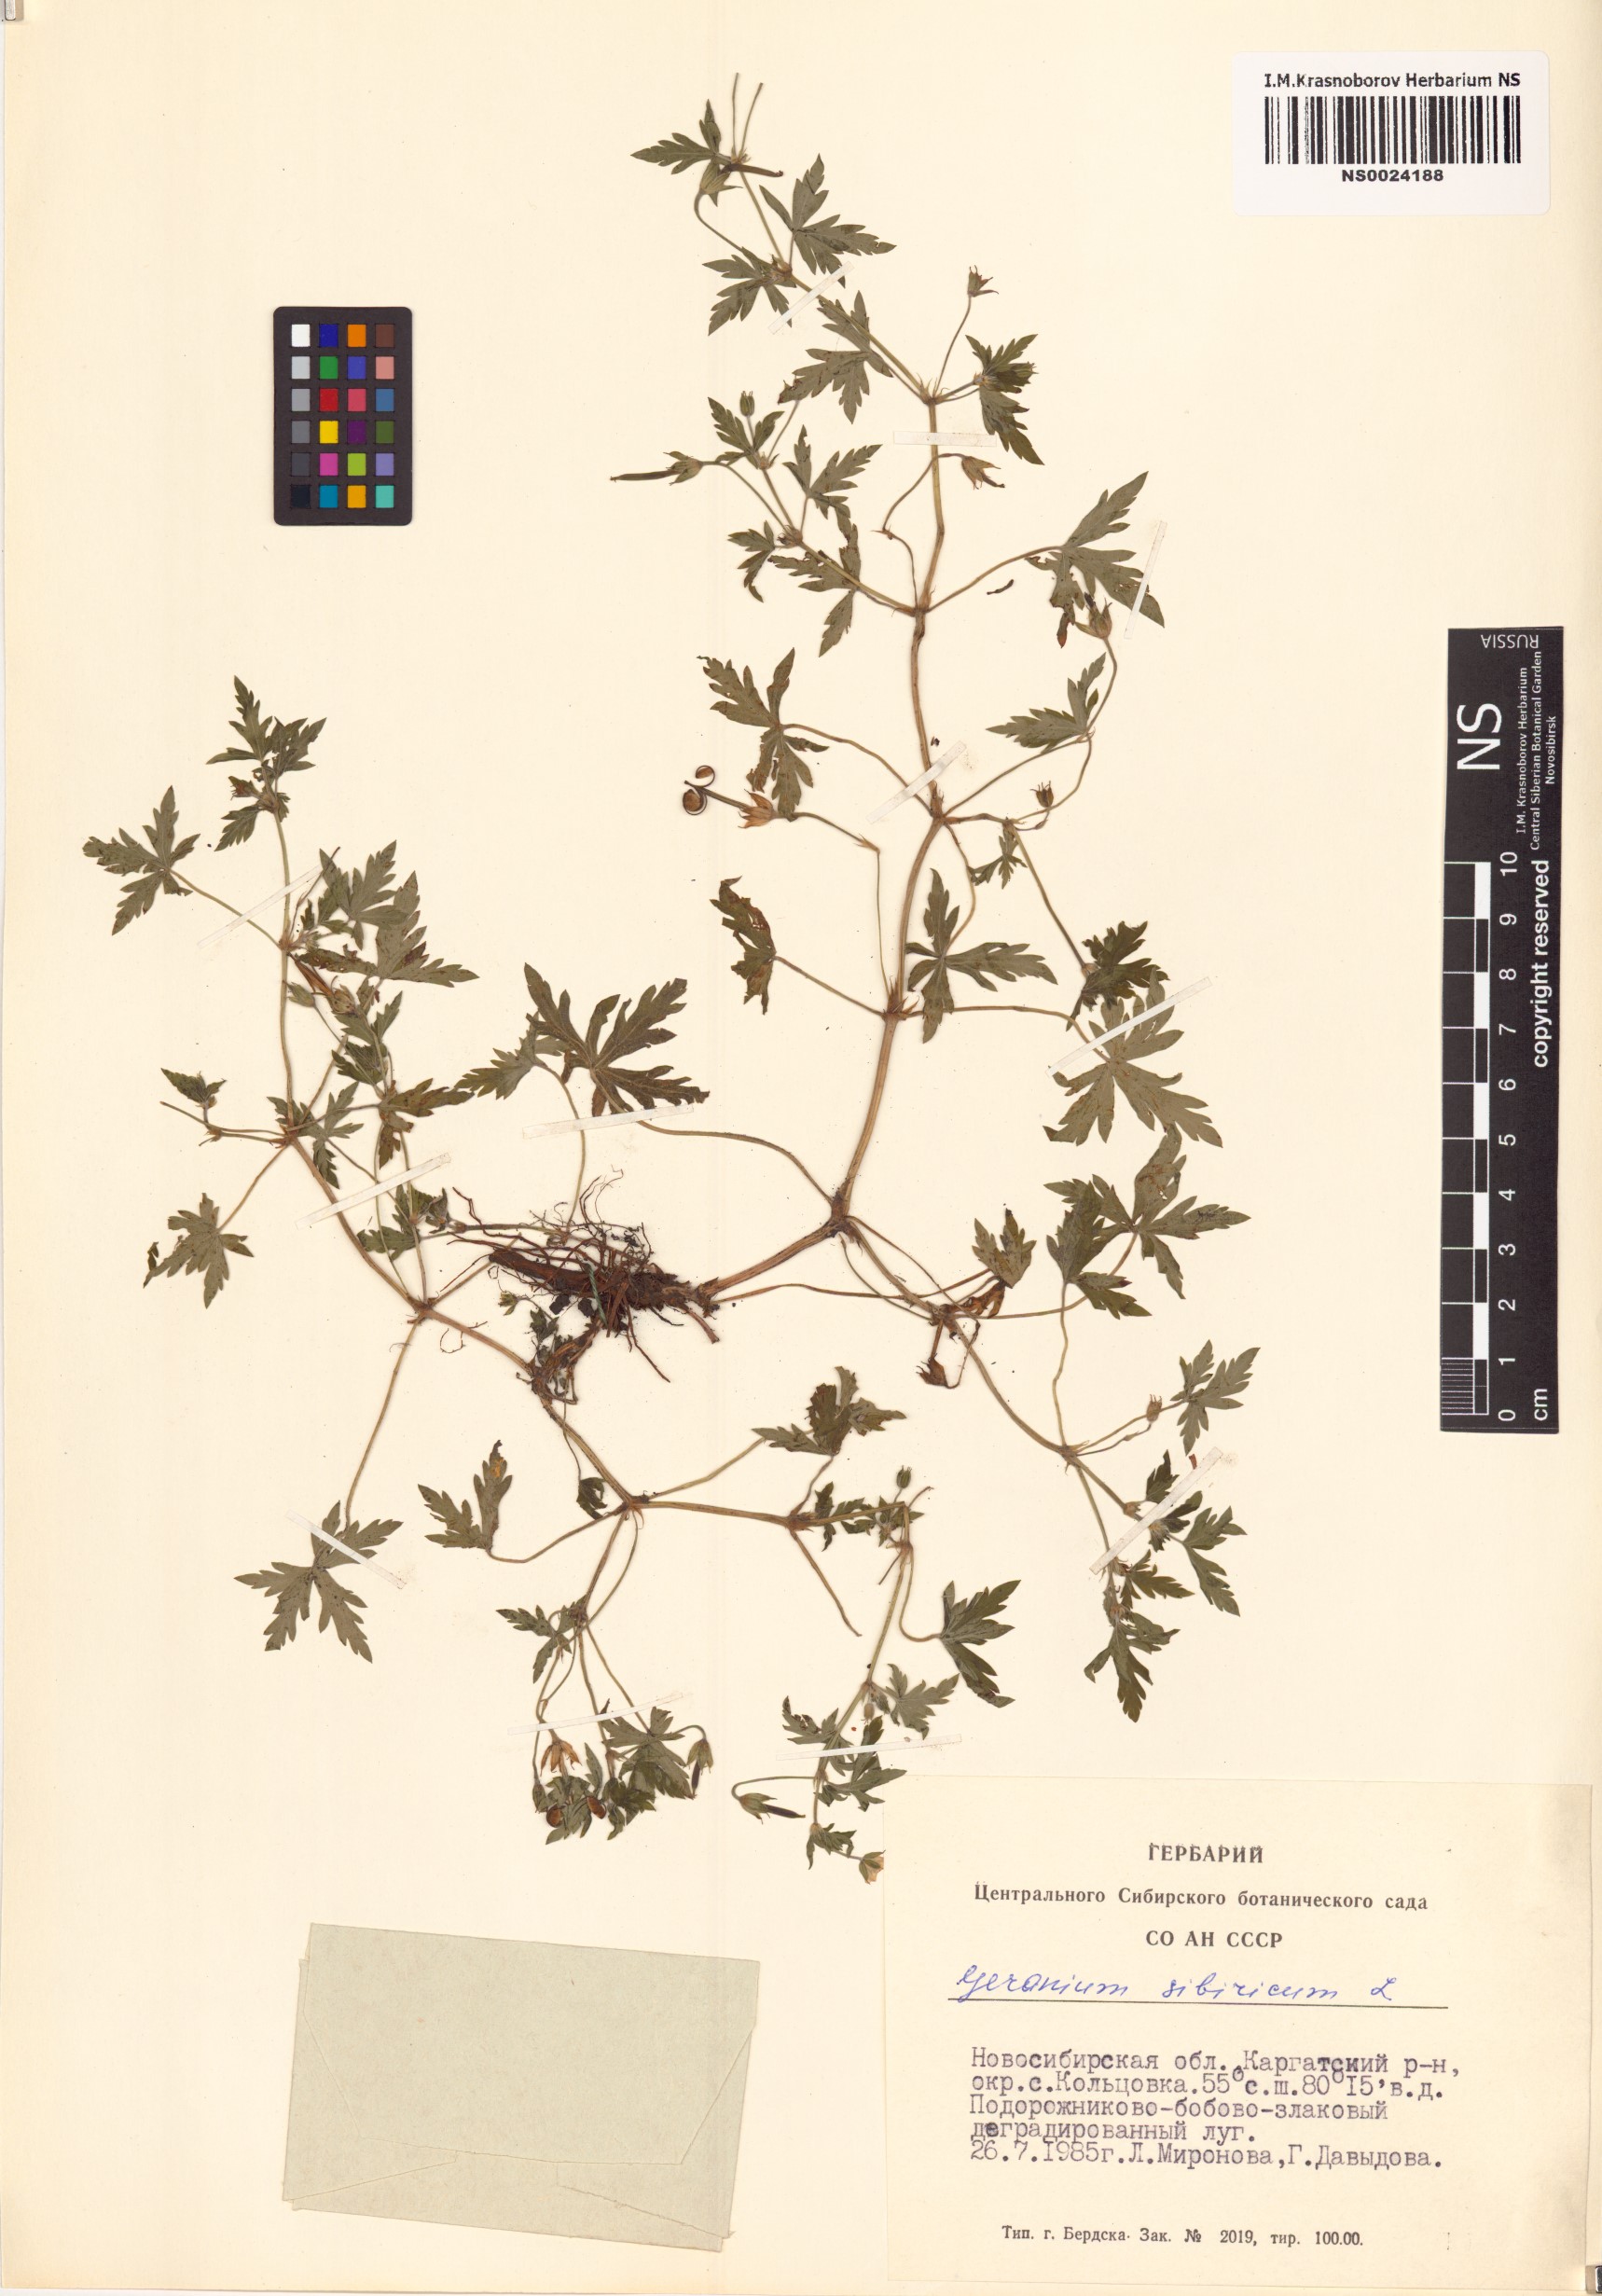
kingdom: Plantae
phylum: Tracheophyta
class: Magnoliopsida
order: Geraniales
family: Geraniaceae
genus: Geranium
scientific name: Geranium sibiricum
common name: Siberian crane's-bill
